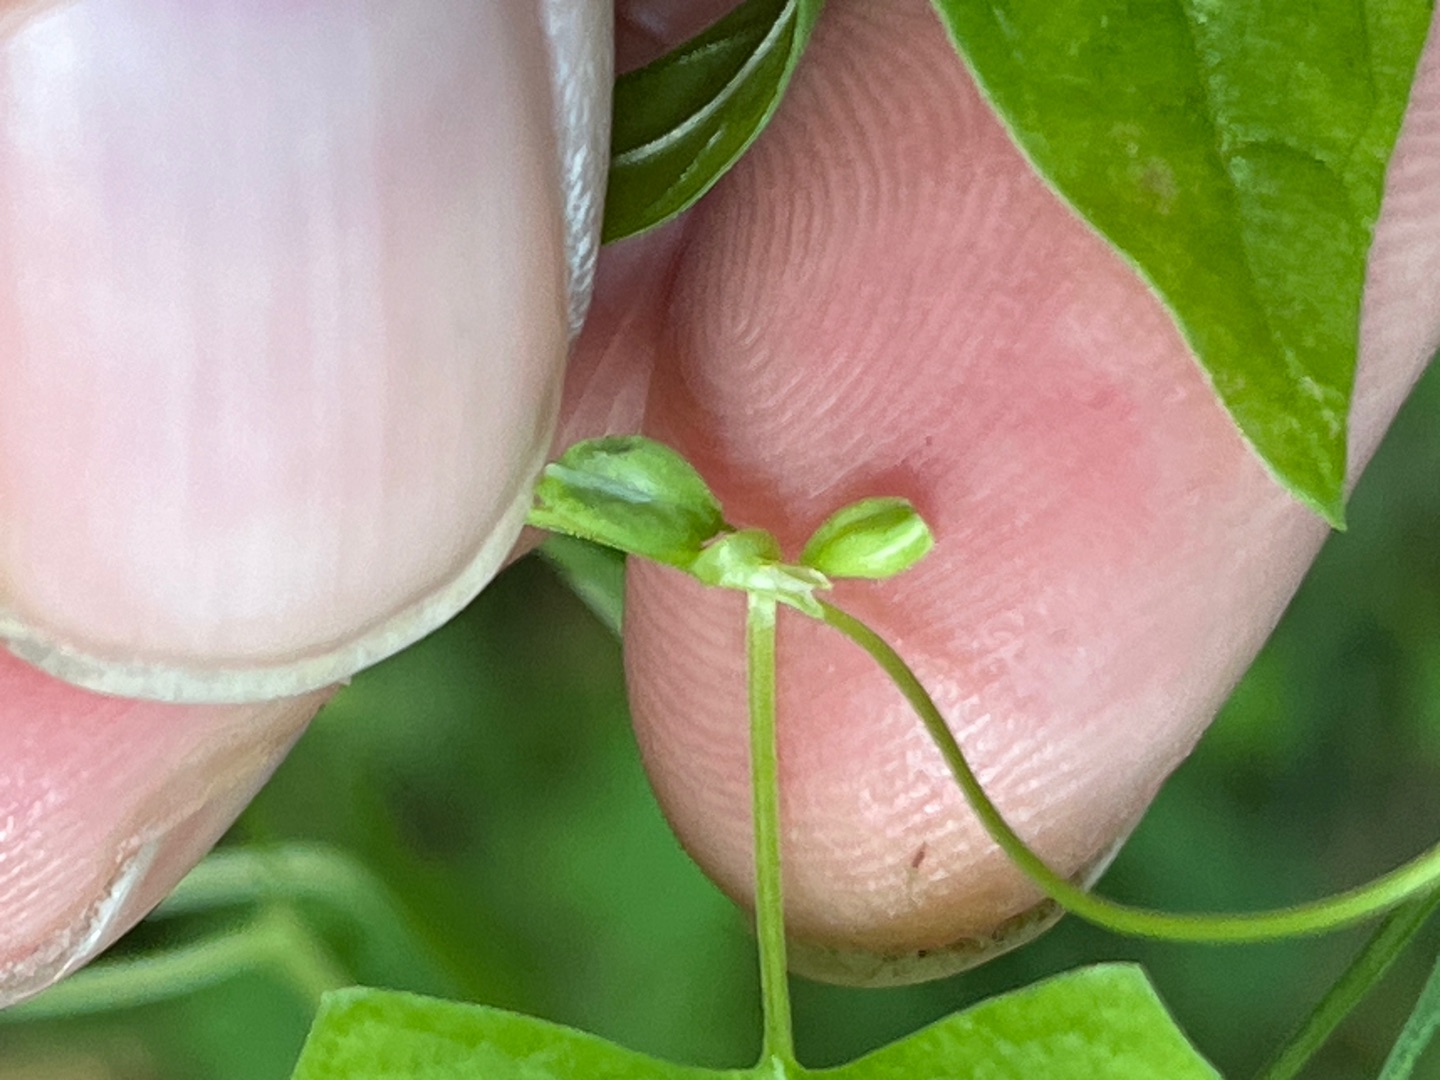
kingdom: Plantae
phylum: Tracheophyta
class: Magnoliopsida
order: Caryophyllales
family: Polygonaceae
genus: Fallopia
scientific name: Fallopia convolvulus
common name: Snerle-pileurt
